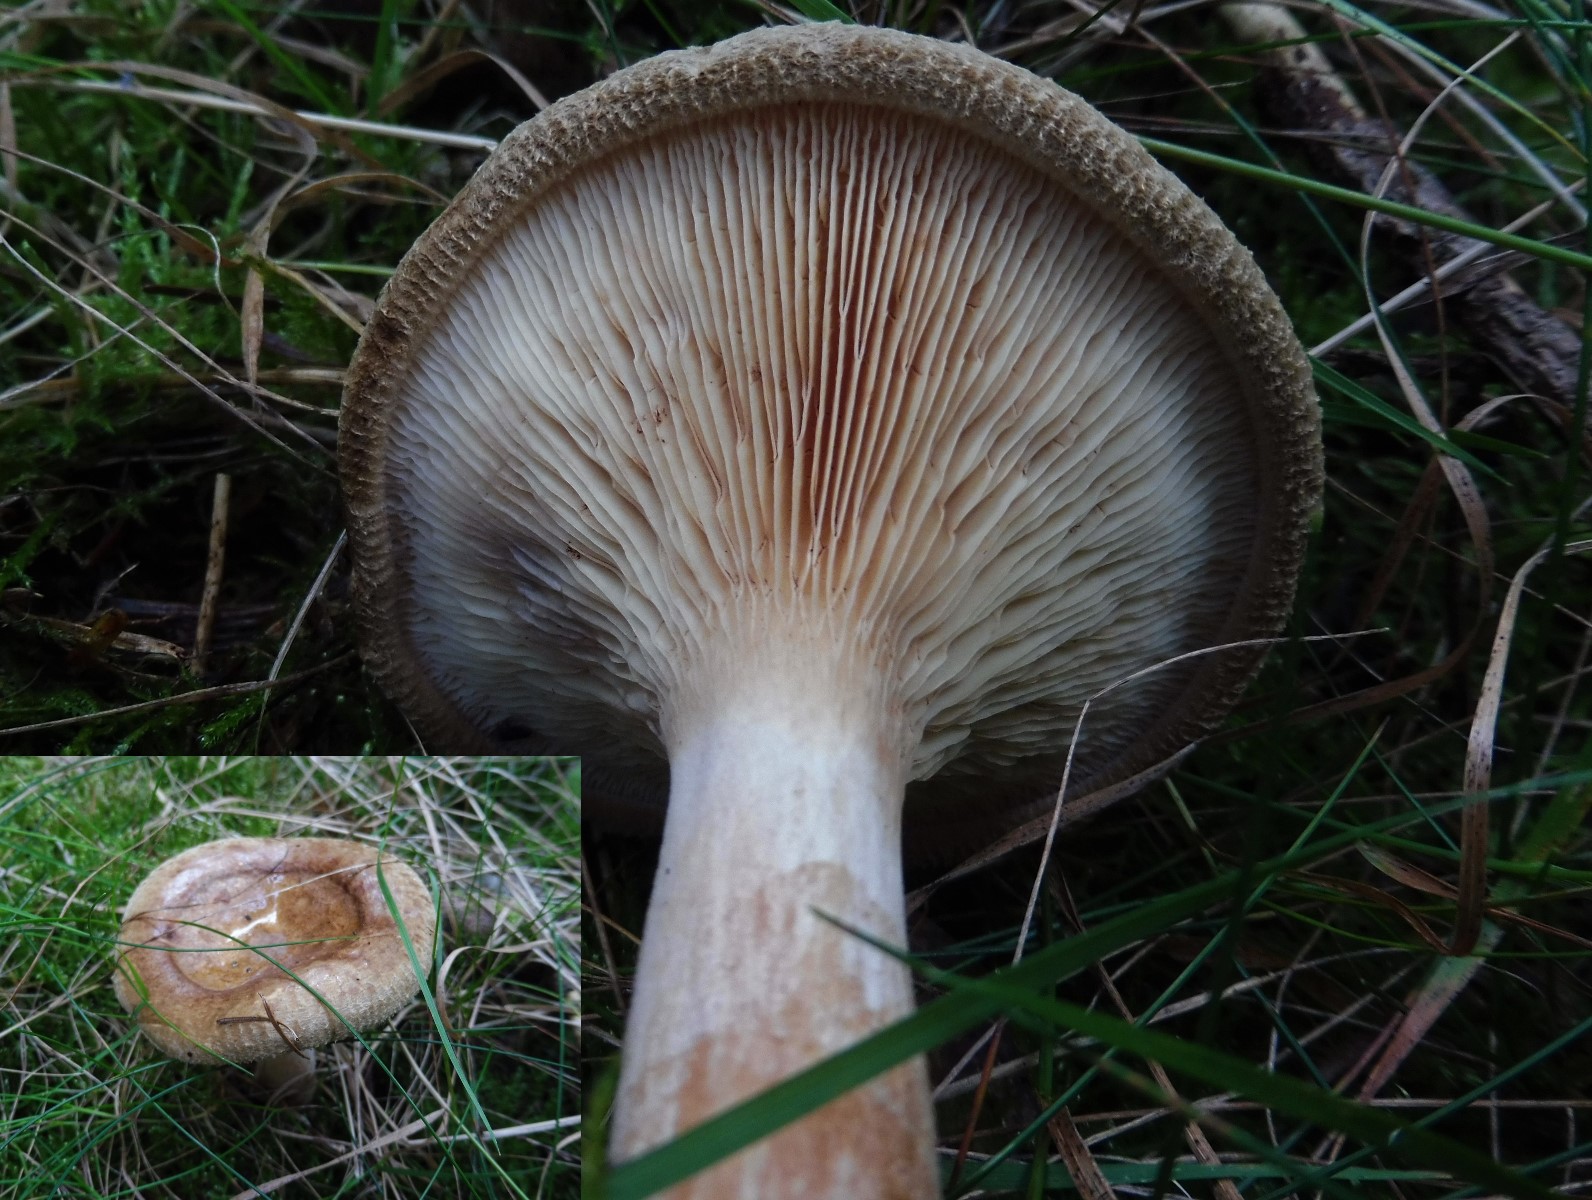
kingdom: Fungi
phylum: Basidiomycota
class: Agaricomycetes
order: Boletales
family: Paxillaceae
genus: Paxillus
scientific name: Paxillus involutus
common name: almindelig netbladhat
